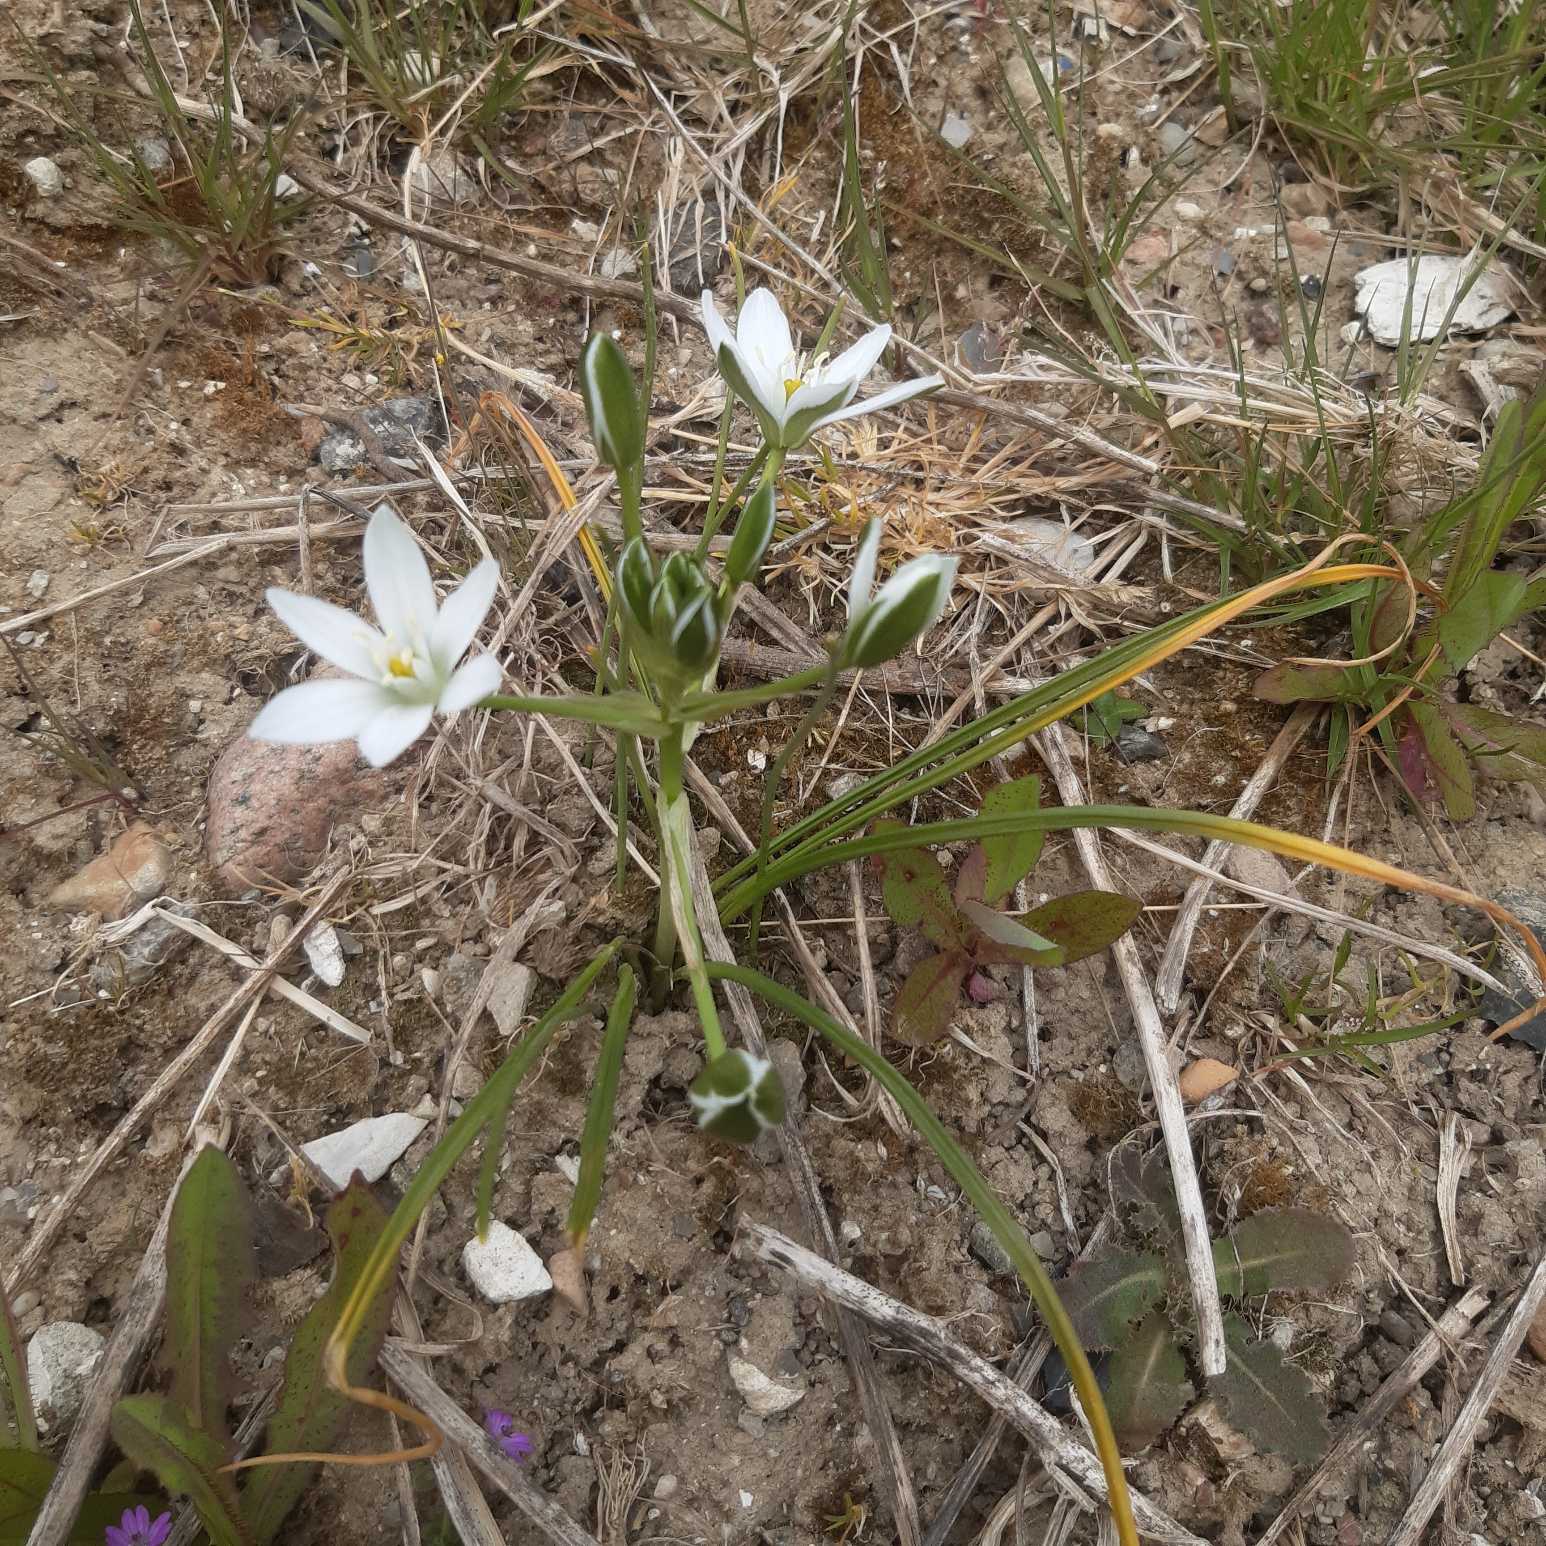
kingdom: Plantae
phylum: Tracheophyta
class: Liliopsida
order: Asparagales
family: Asparagaceae
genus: Ornithogalum
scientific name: Ornithogalum divergens
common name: Udspærret fuglemælk
